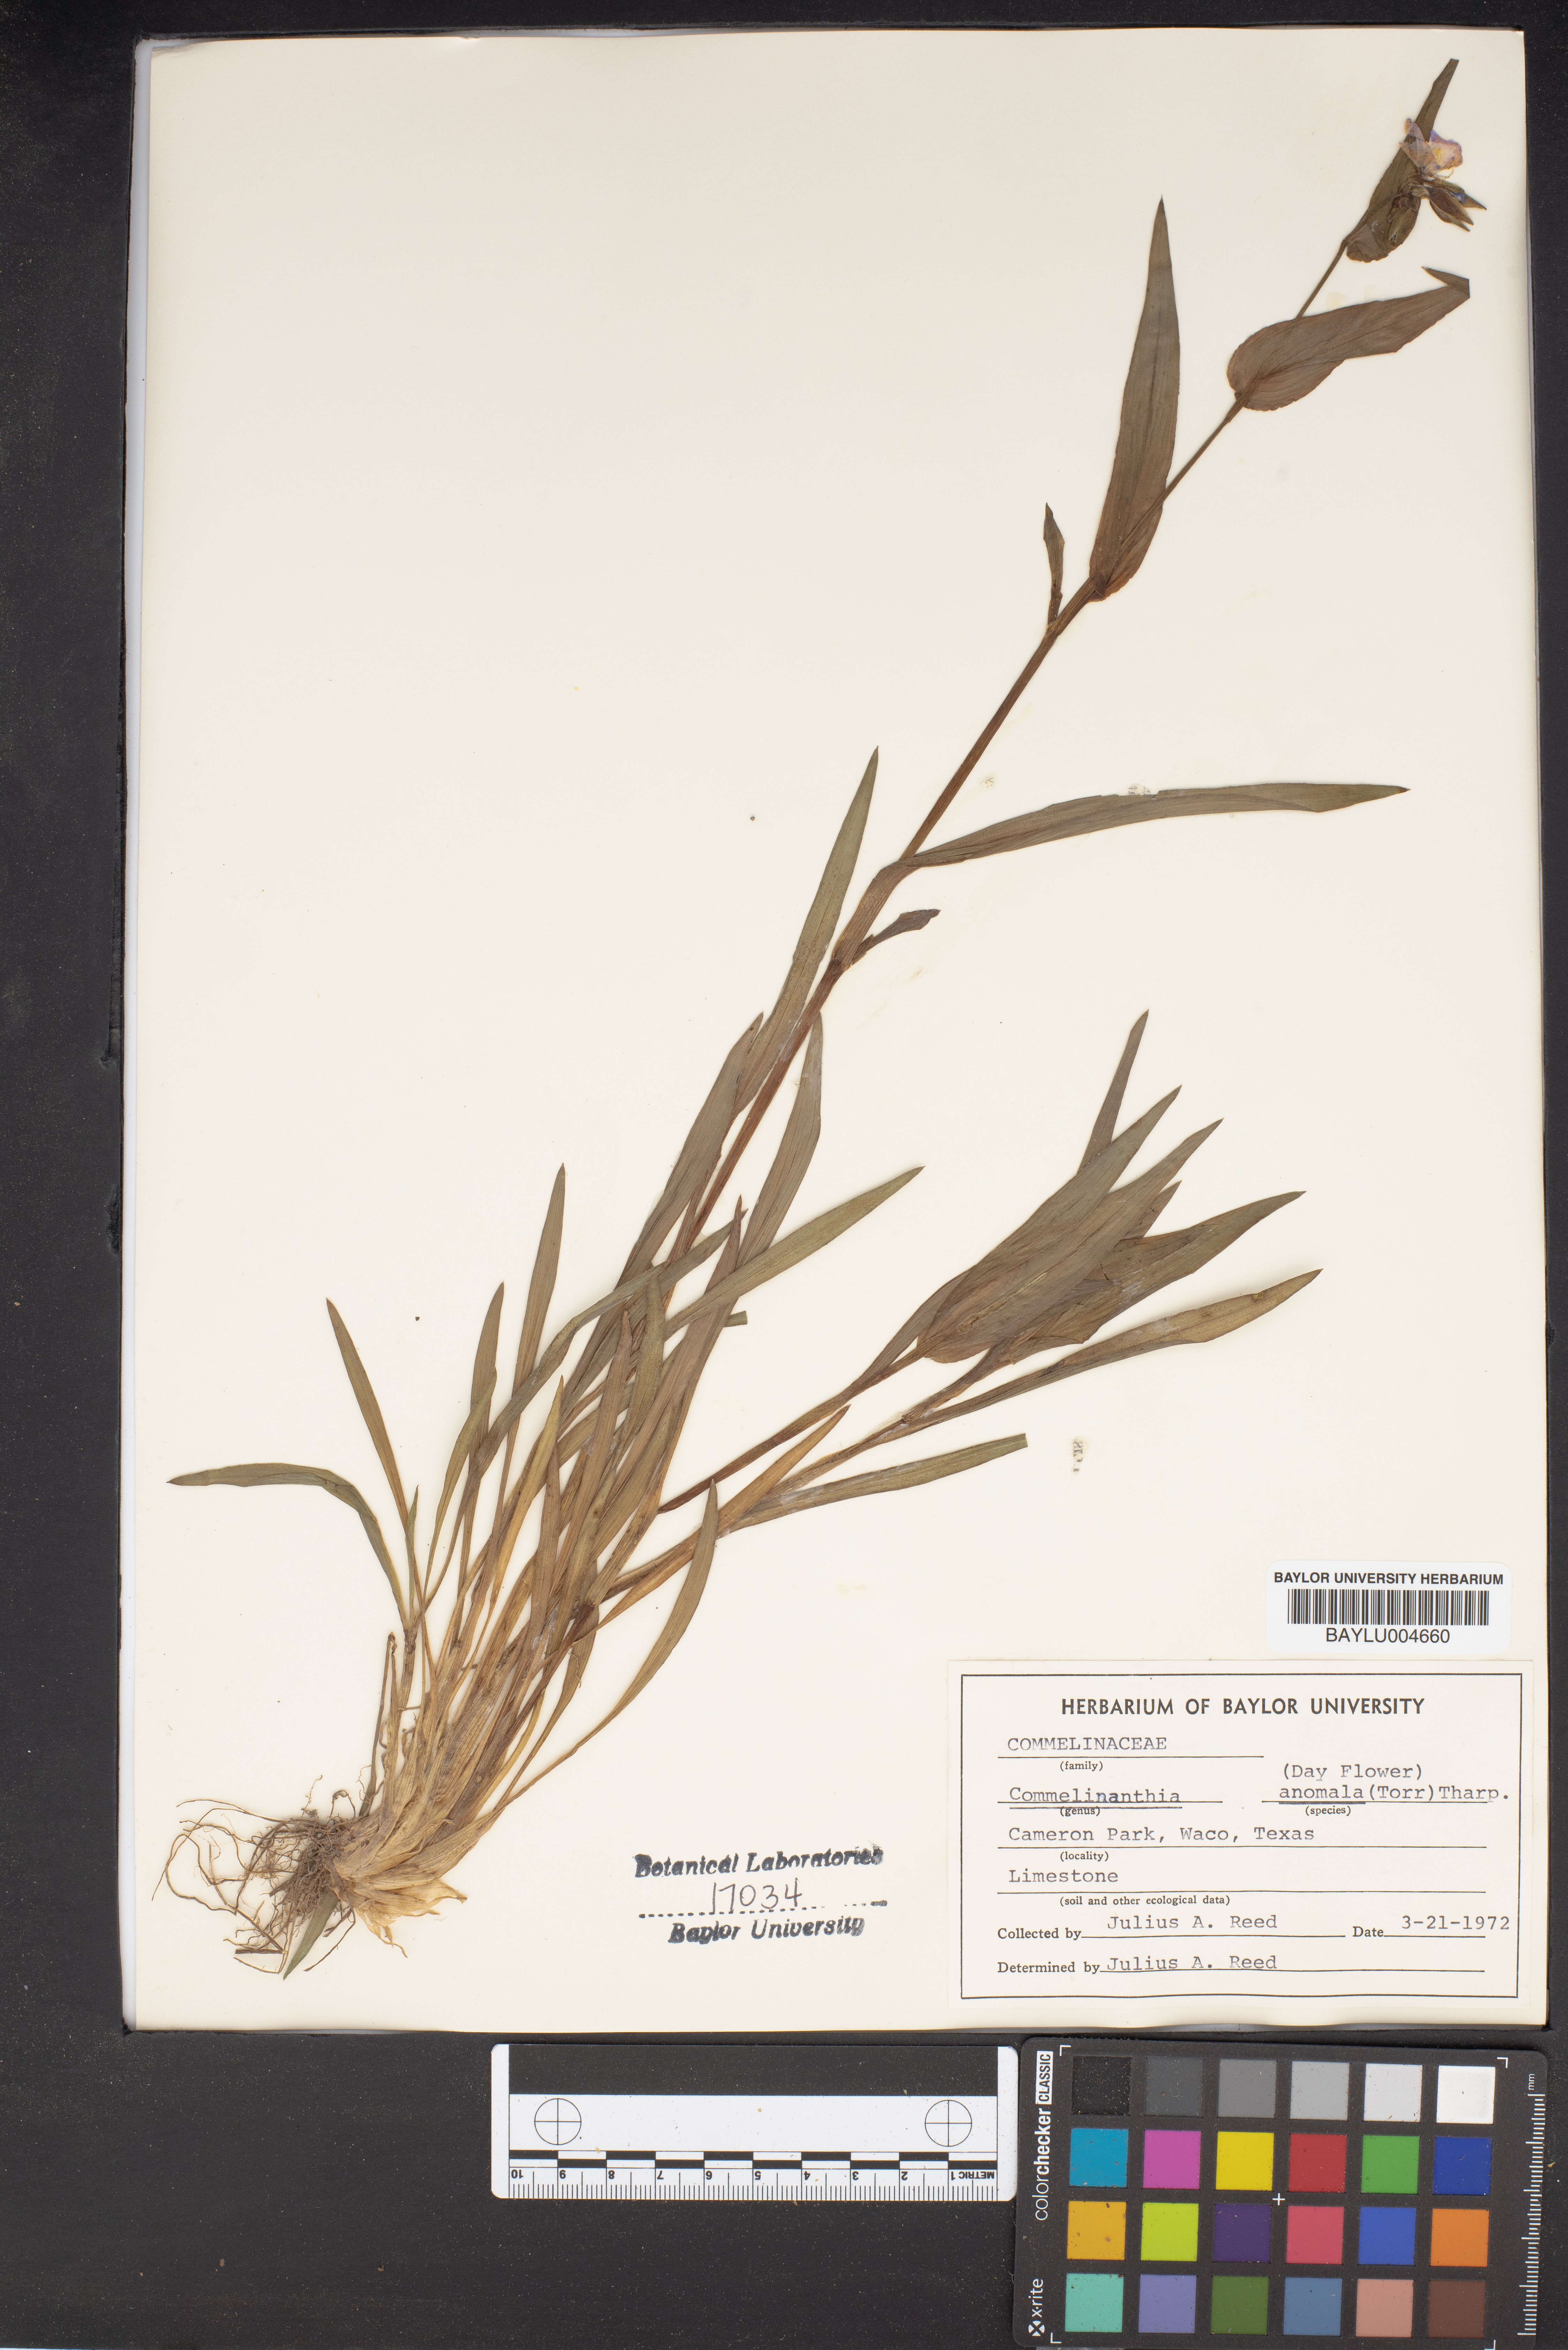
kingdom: Plantae
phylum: Tracheophyta
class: Liliopsida
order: Commelinales
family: Commelinaceae
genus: Tinantia
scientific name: Tinantia anomala
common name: False dayflower
